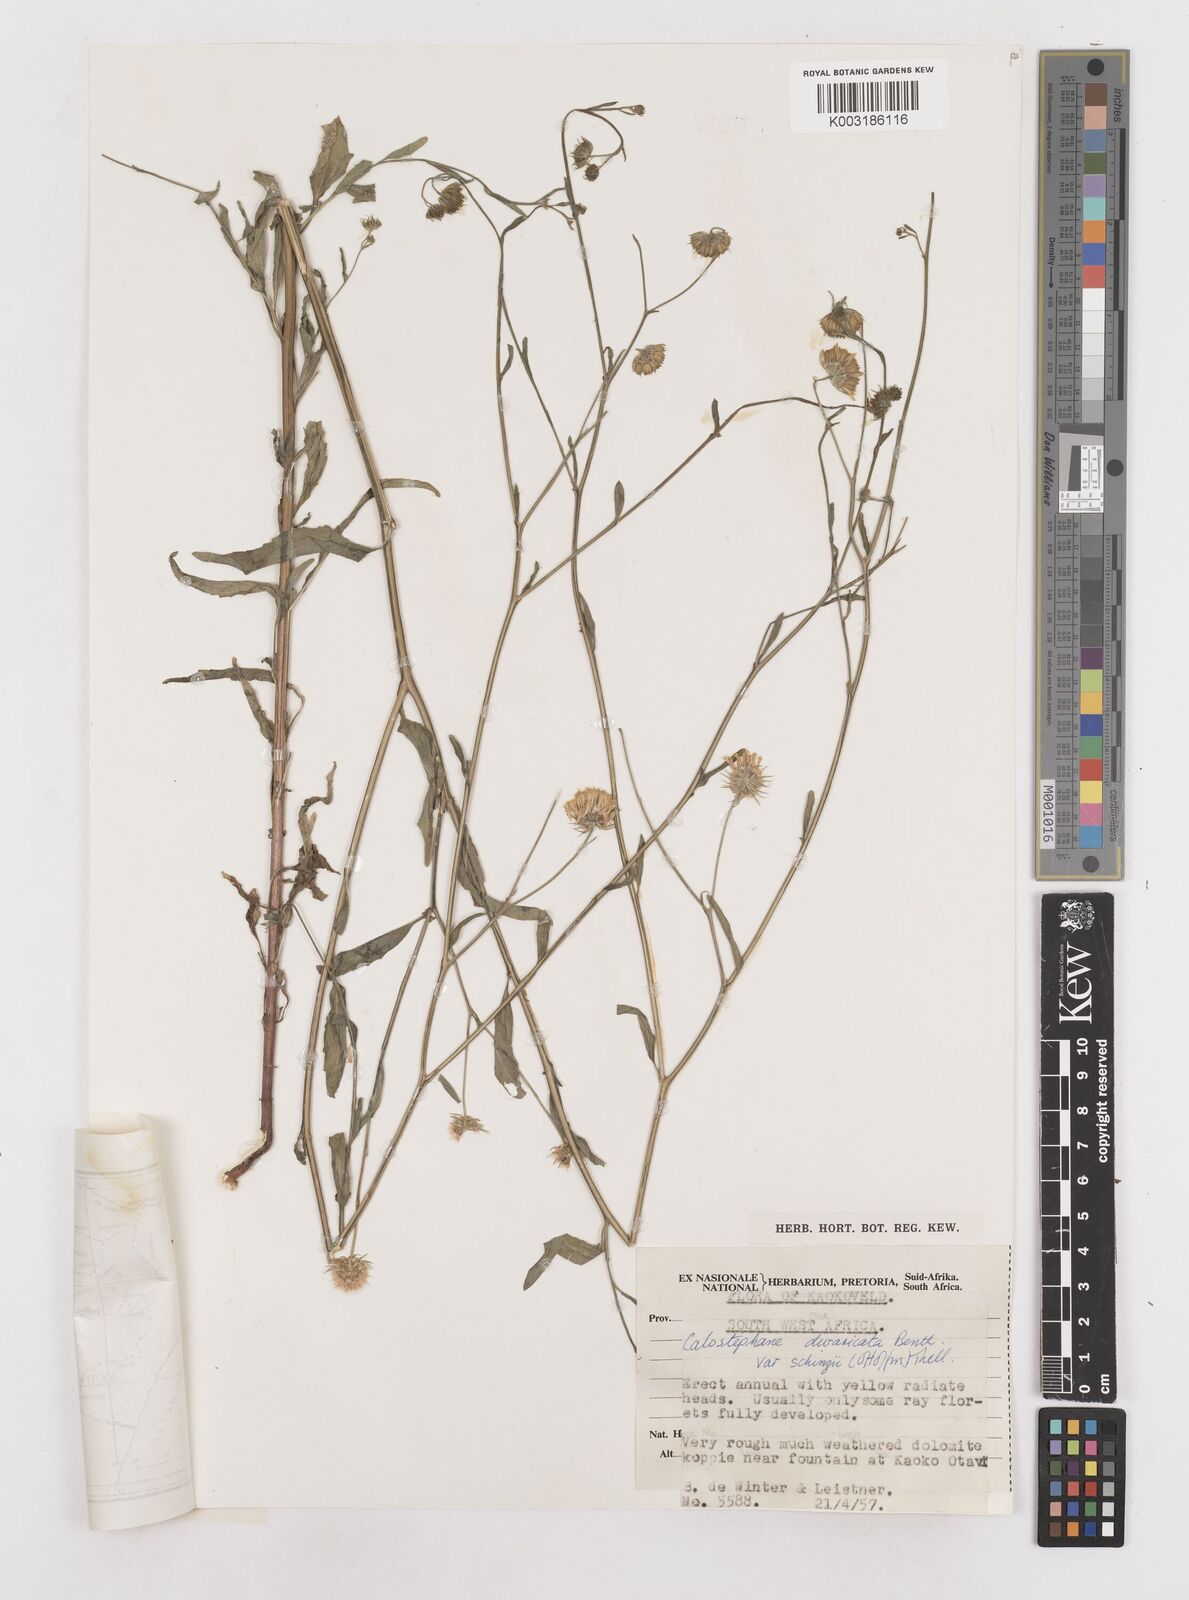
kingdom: Plantae
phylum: Tracheophyta
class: Magnoliopsida
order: Asterales
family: Asteraceae
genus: Calostephane
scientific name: Calostephane divaricata
